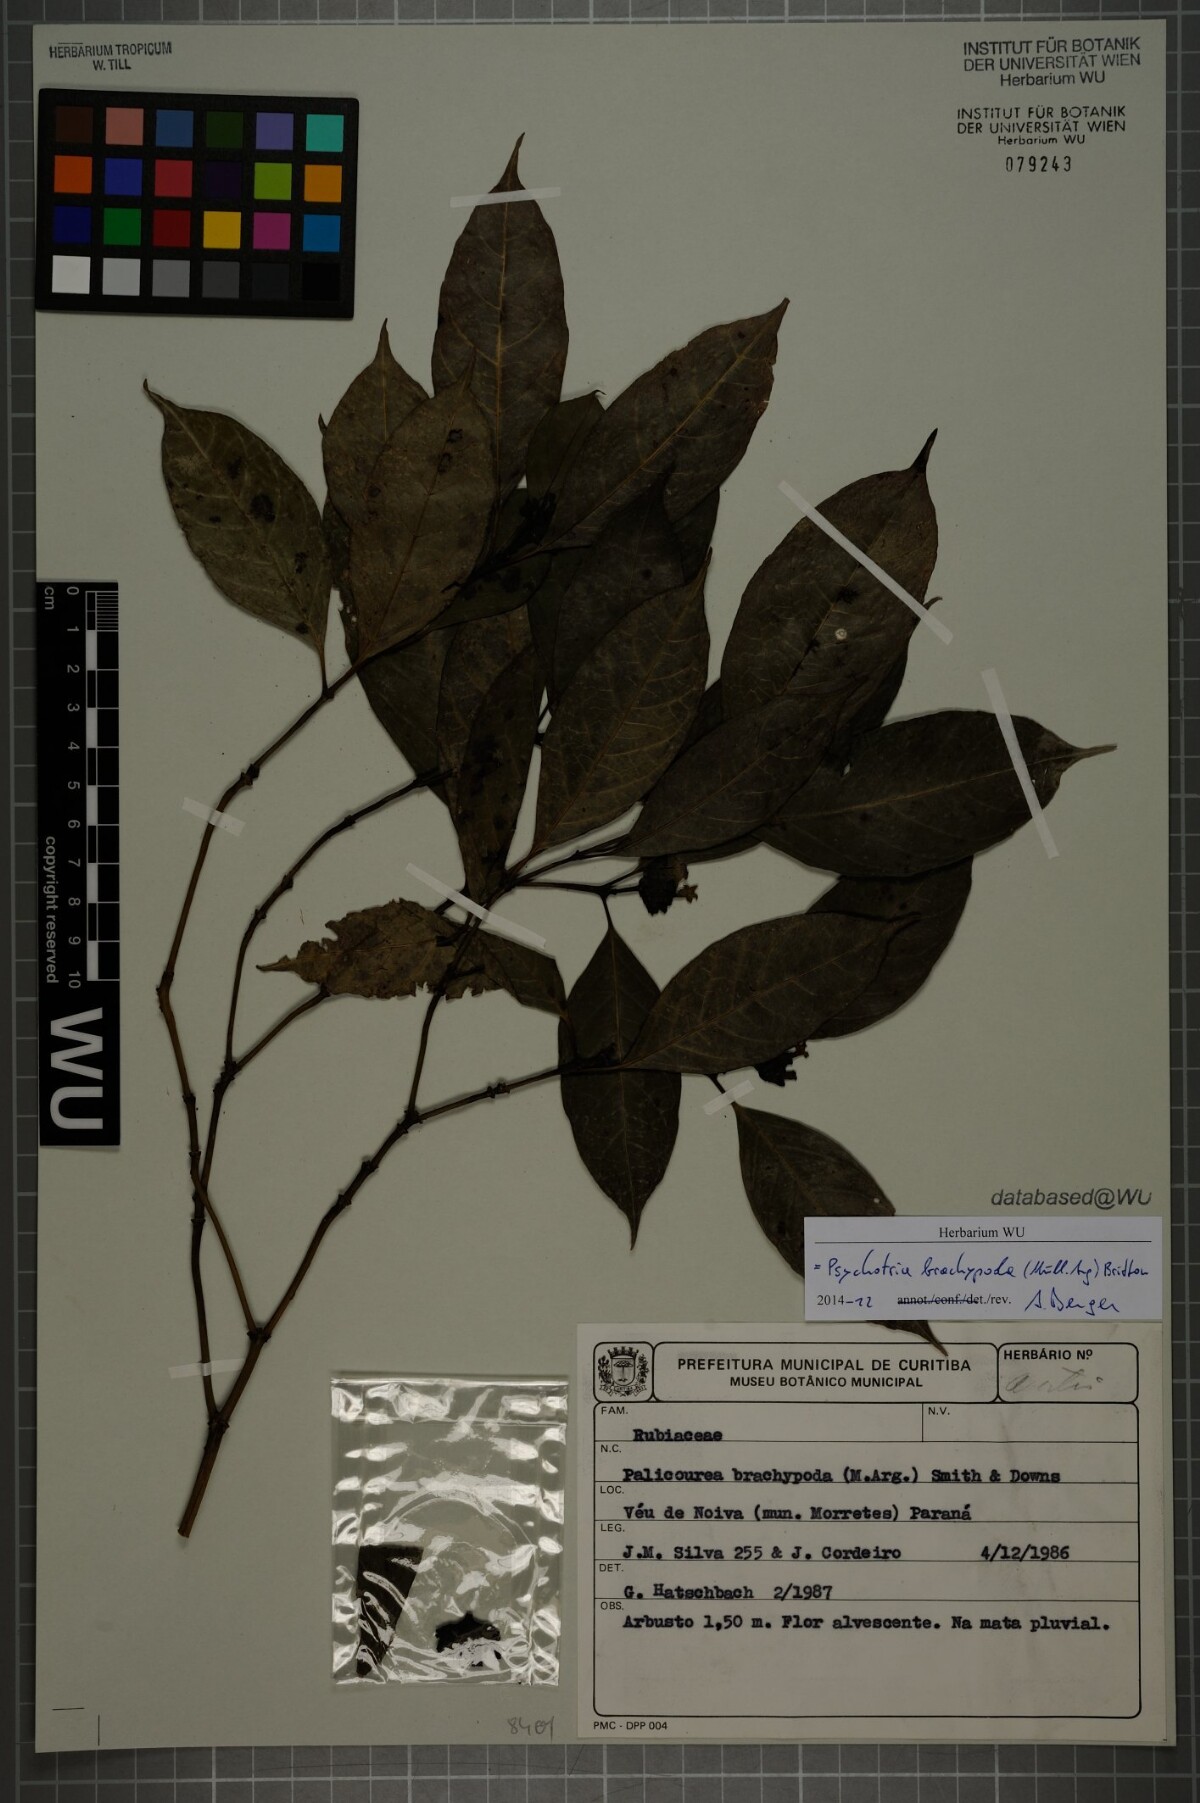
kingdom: Plantae
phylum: Tracheophyta
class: Magnoliopsida
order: Gentianales
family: Rubiaceae
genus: Psychotria
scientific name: Psychotria brachypoda
